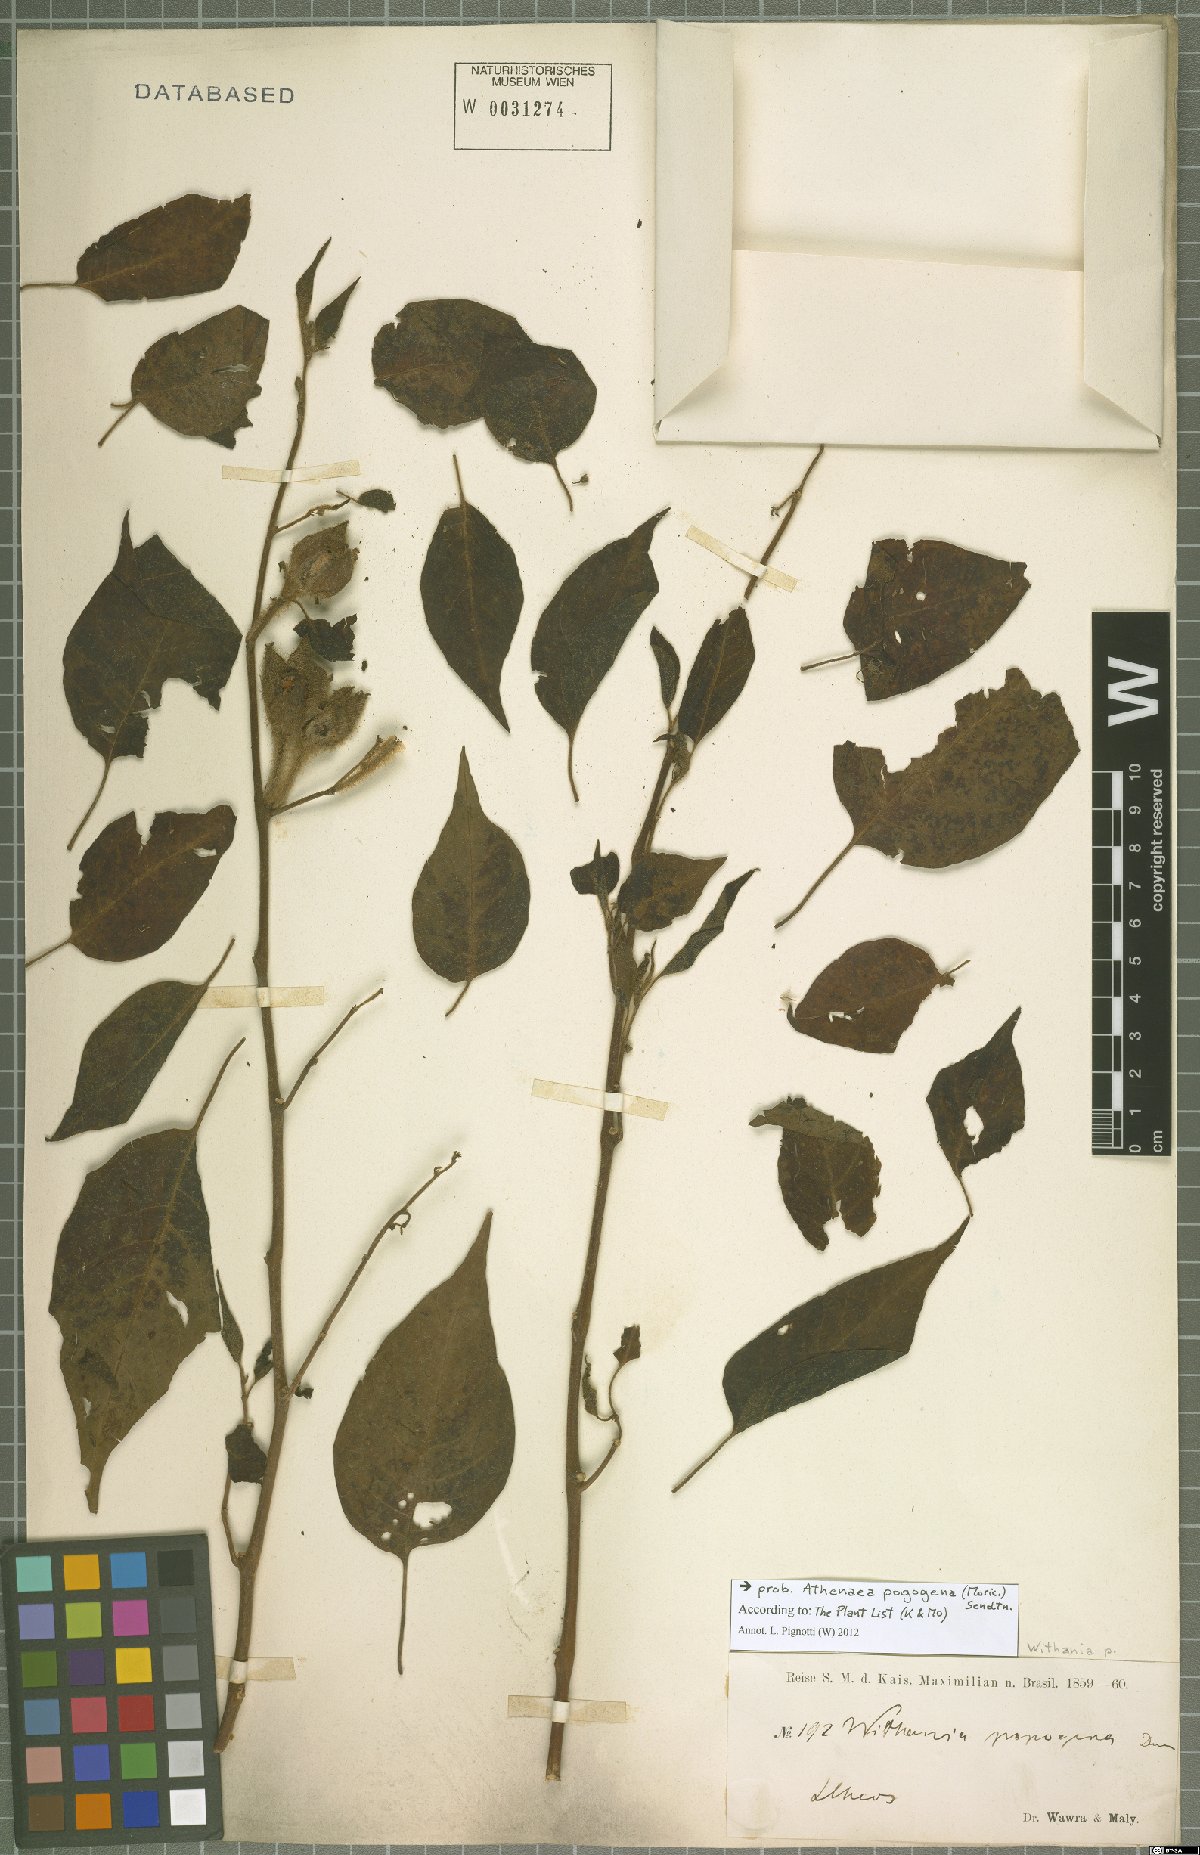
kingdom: Plantae
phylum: Tracheophyta
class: Magnoliopsida
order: Solanales
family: Solanaceae
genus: Athenaea
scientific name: Athenaea pogogena
